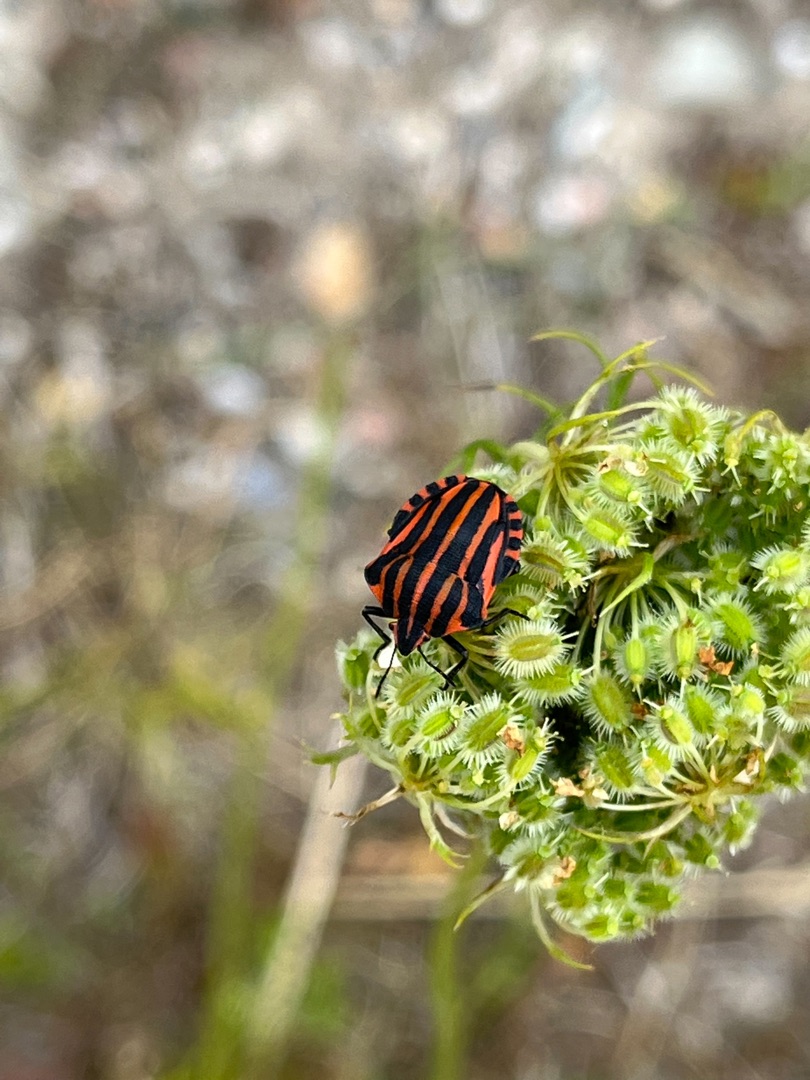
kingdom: Animalia
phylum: Arthropoda
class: Insecta
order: Hemiptera
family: Pentatomidae
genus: Graphosoma
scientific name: Graphosoma italicum
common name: Stribetæge
